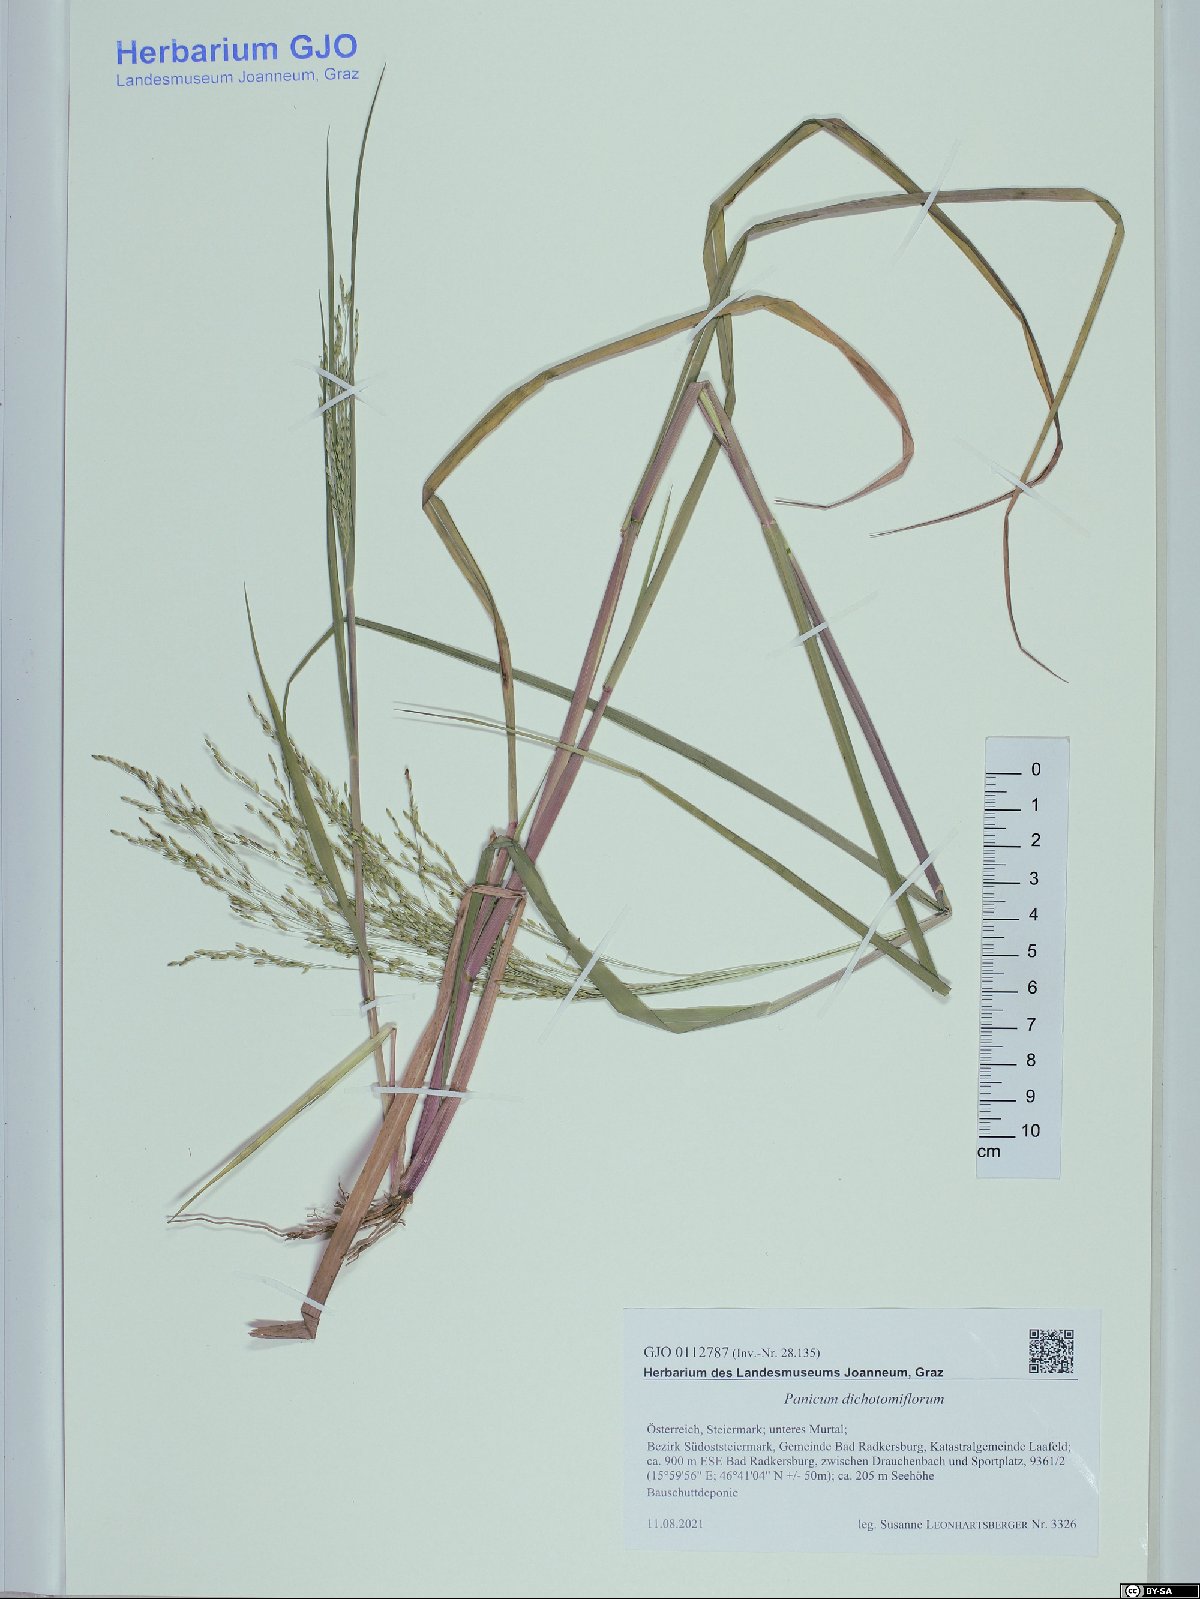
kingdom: Plantae
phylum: Tracheophyta
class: Liliopsida
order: Poales
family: Poaceae
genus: Panicum
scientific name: Panicum dichotomiflorum
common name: Autumn millet
